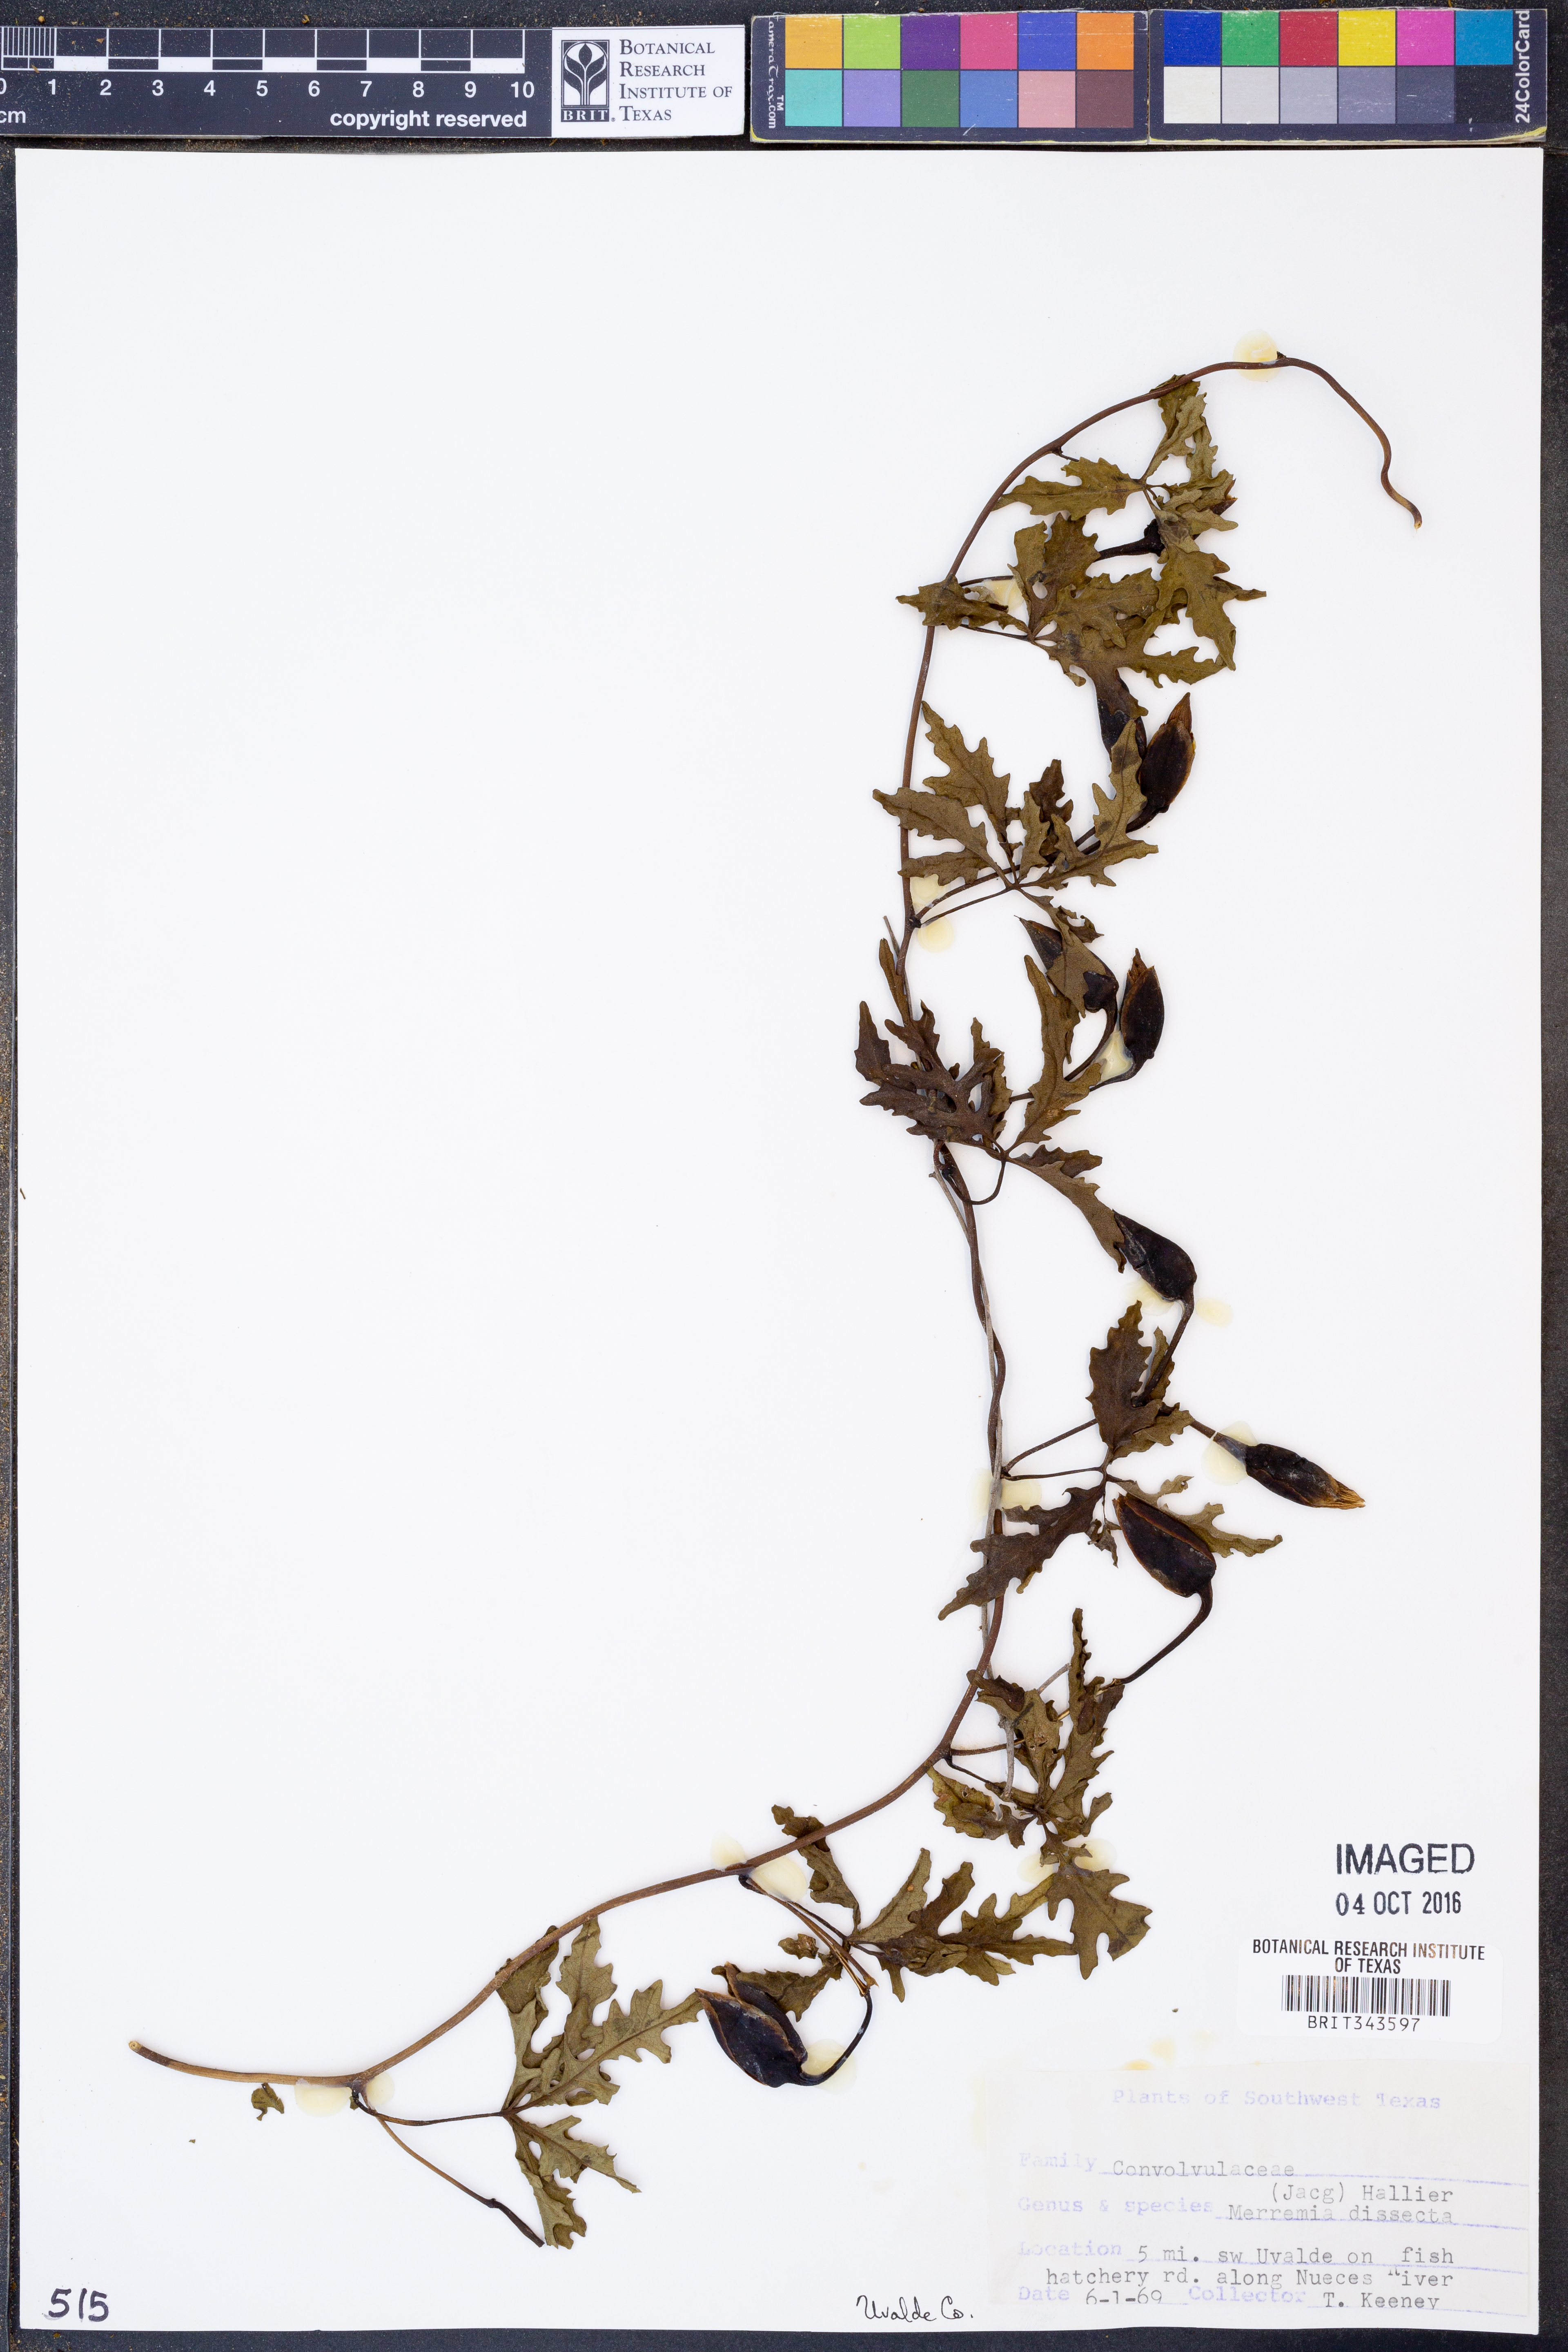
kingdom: Plantae
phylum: Tracheophyta
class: Magnoliopsida
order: Solanales
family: Convolvulaceae
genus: Distimake
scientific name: Distimake dissectus
